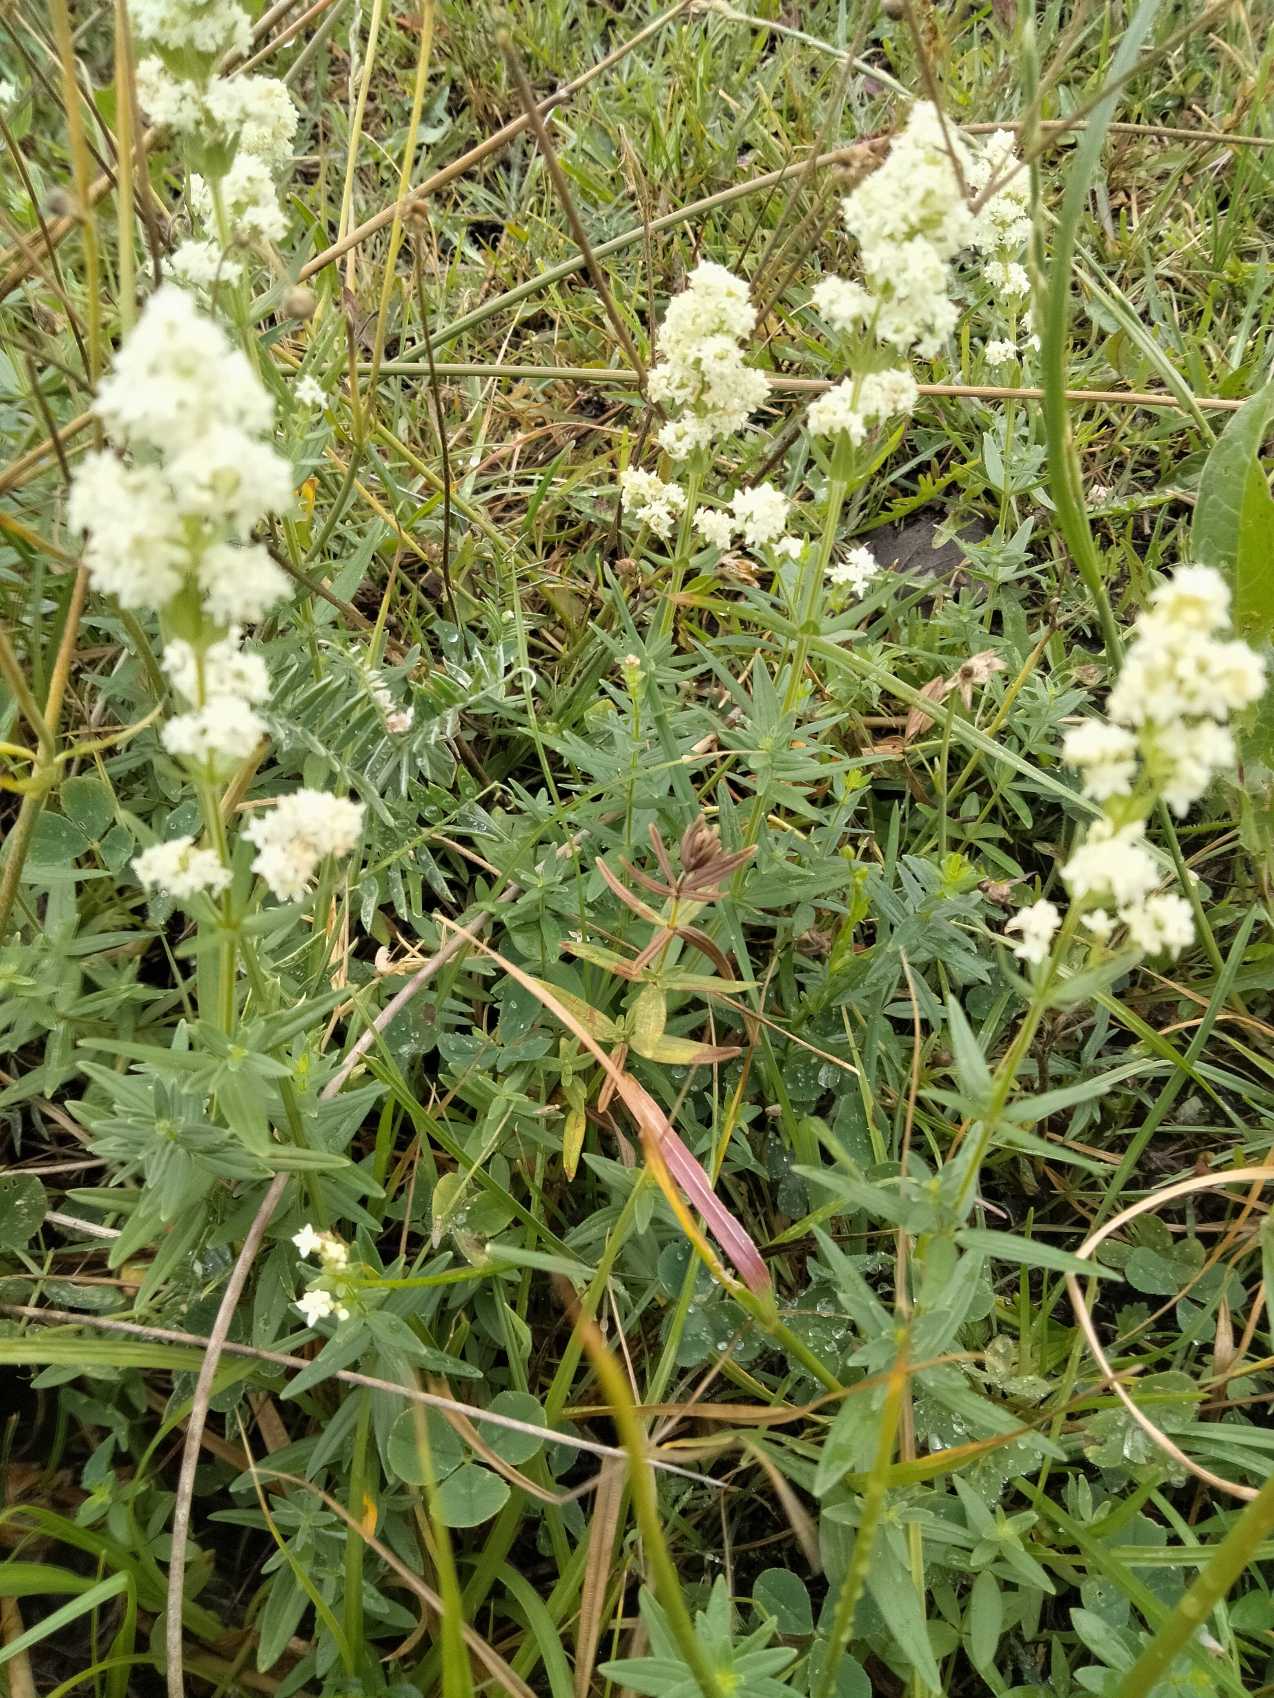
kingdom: Plantae
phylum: Tracheophyta
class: Magnoliopsida
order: Gentianales
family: Rubiaceae
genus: Galium
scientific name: Galium boreale
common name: Trenervet snerre
